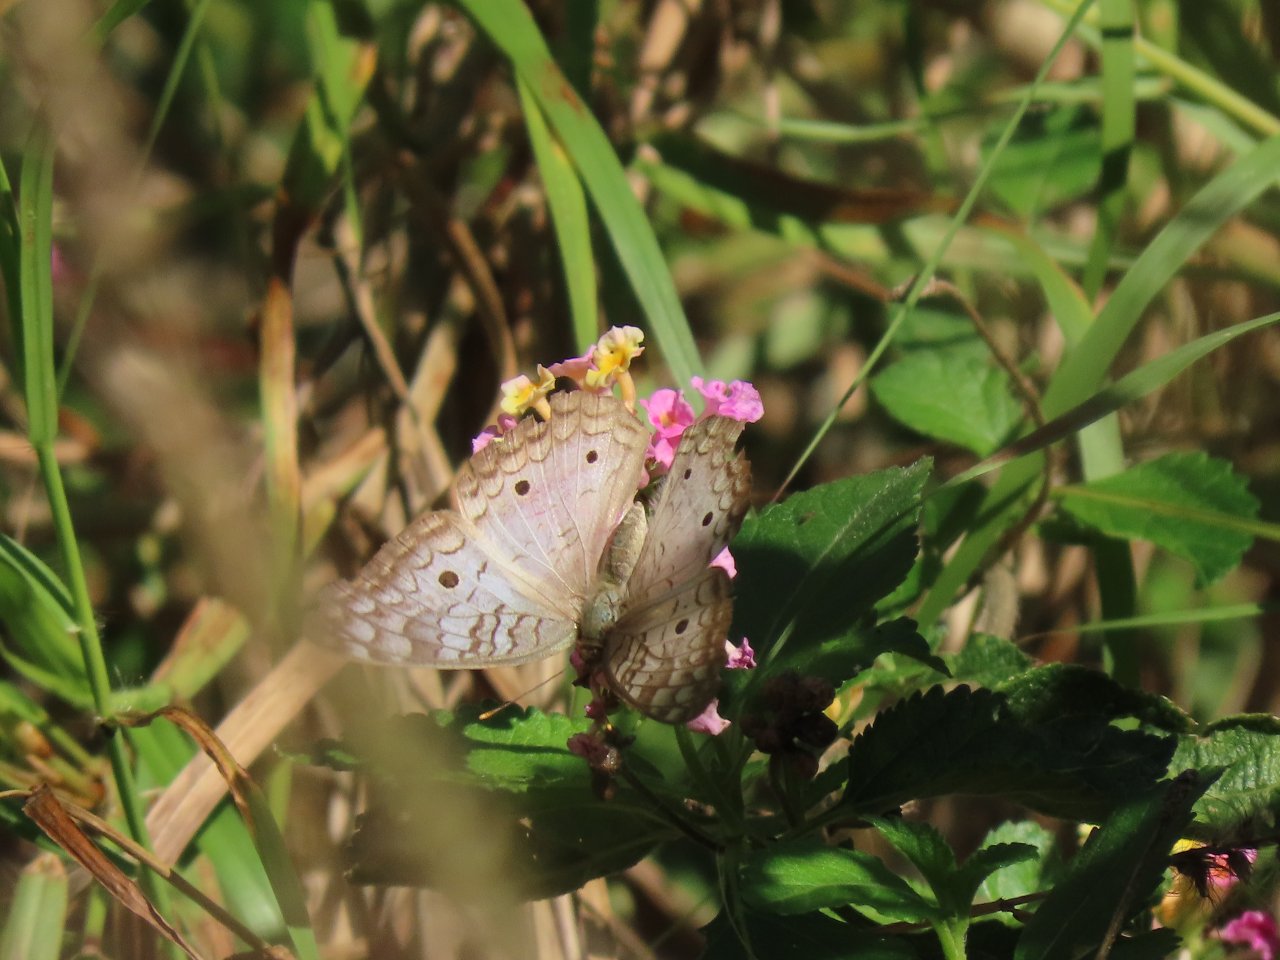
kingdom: Animalia
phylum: Arthropoda
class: Insecta
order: Lepidoptera
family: Nymphalidae
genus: Anartia
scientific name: Anartia jatrophae
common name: White Peacock
